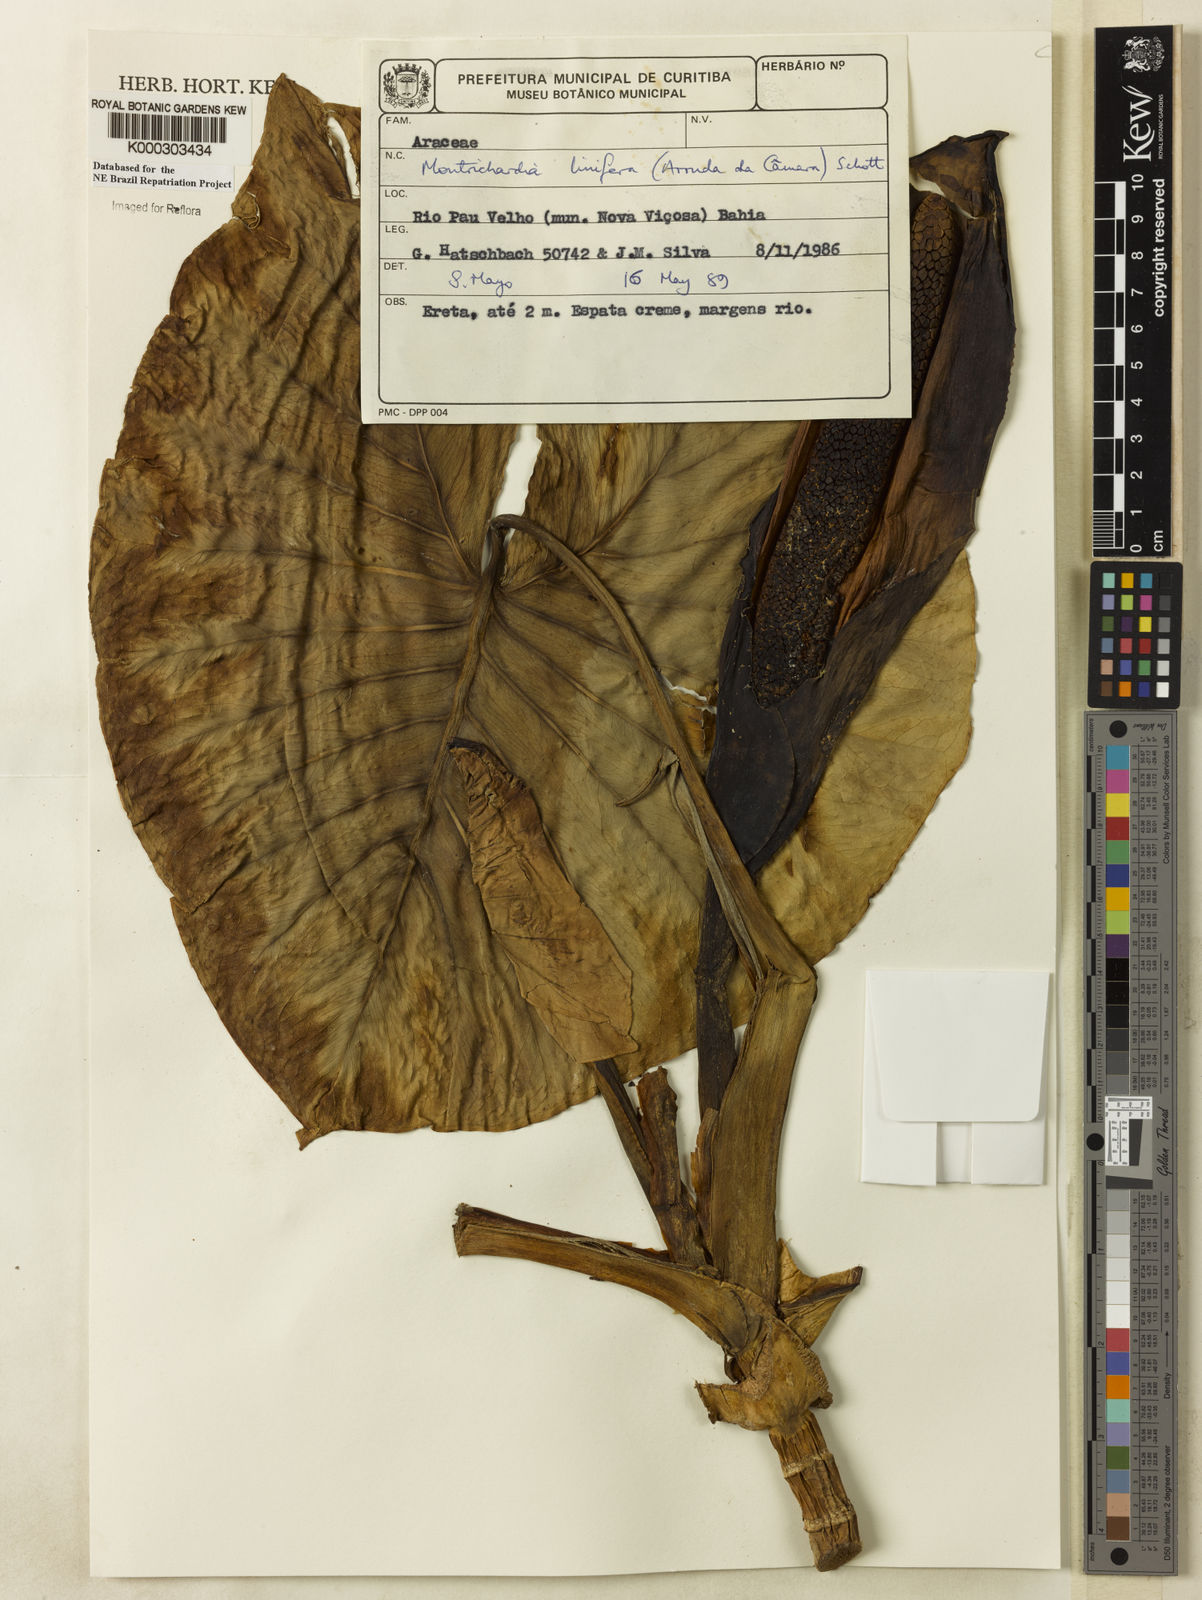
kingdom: Plantae
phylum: Tracheophyta
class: Liliopsida
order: Alismatales
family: Araceae
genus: Montrichardia
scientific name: Montrichardia linifera
